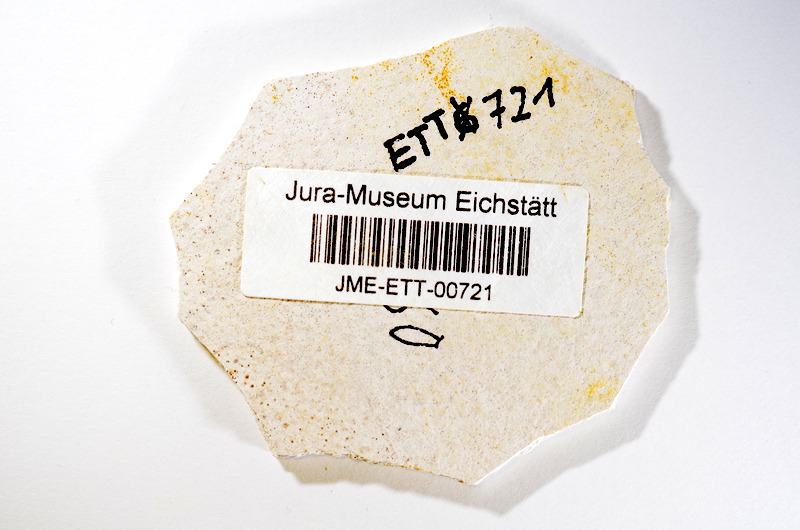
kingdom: Animalia
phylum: Chordata
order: Salmoniformes
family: Orthogonikleithridae
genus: Orthogonikleithrus
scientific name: Orthogonikleithrus hoelli
